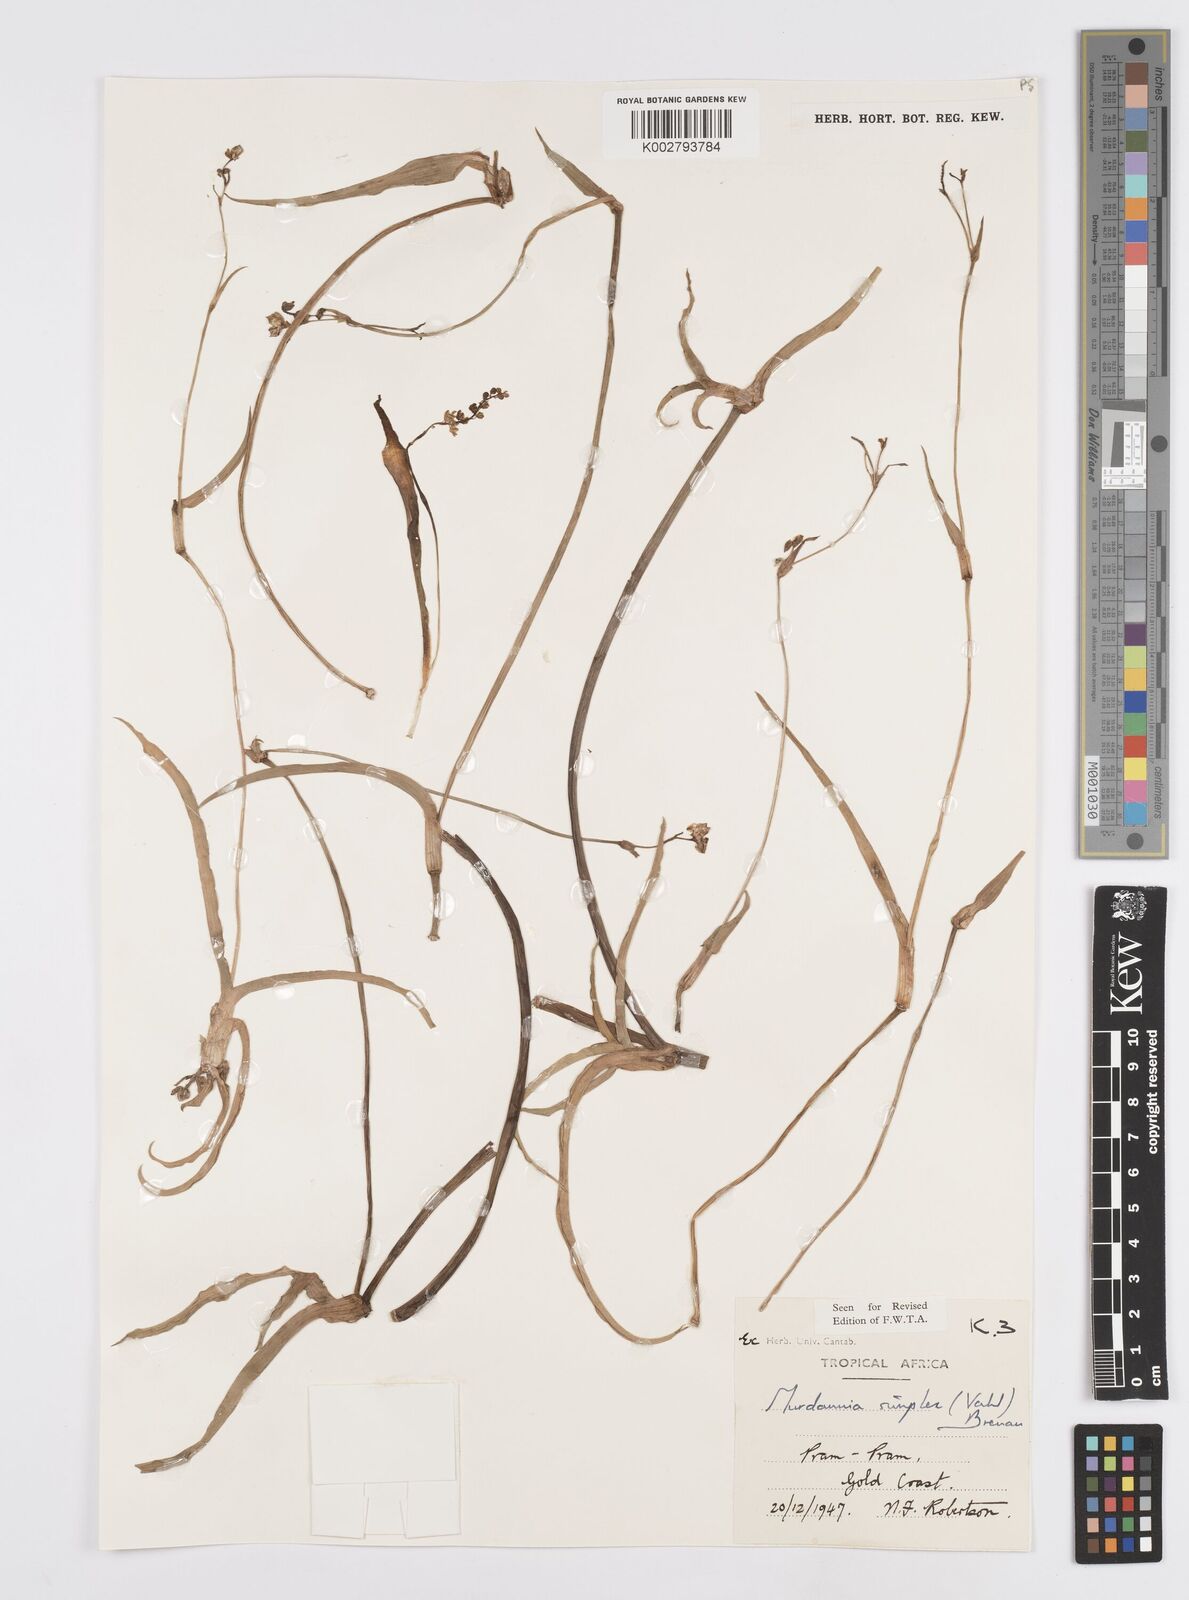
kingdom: Plantae
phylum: Tracheophyta
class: Liliopsida
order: Commelinales
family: Commelinaceae
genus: Murdannia
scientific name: Murdannia simplex
